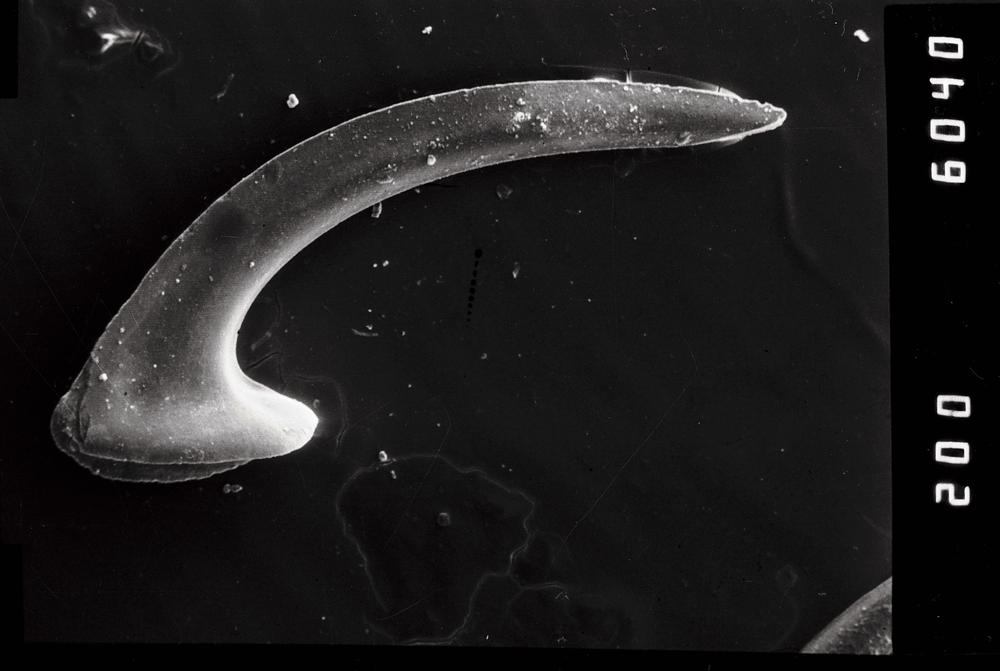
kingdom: Animalia
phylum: Chordata
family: Drepanoistodontidae
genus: Drepanoistodus
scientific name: Drepanoistodus Oistodus forceps
